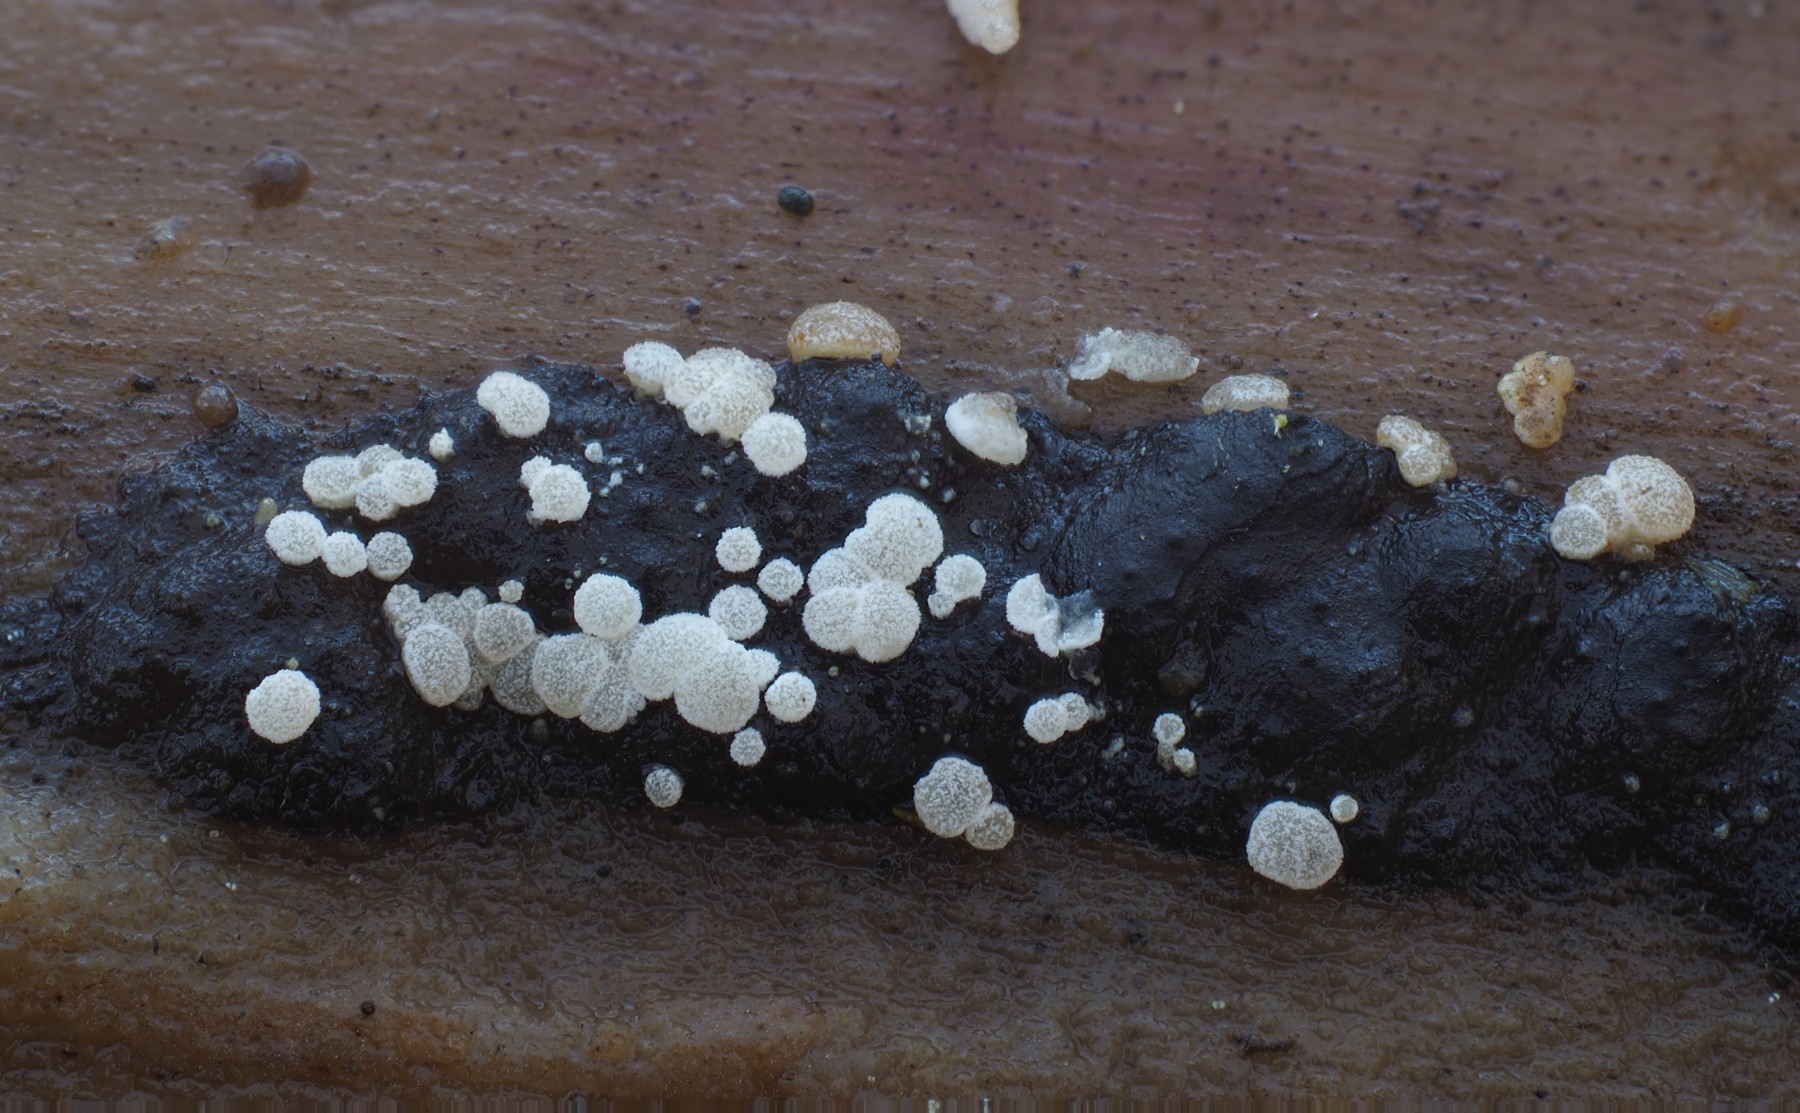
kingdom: Fungi
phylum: Ascomycota
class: Leotiomycetes
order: Helotiales
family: Hyaloscyphaceae
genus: Polydesmia
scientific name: Polydesmia pruinosa
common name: dunskive
